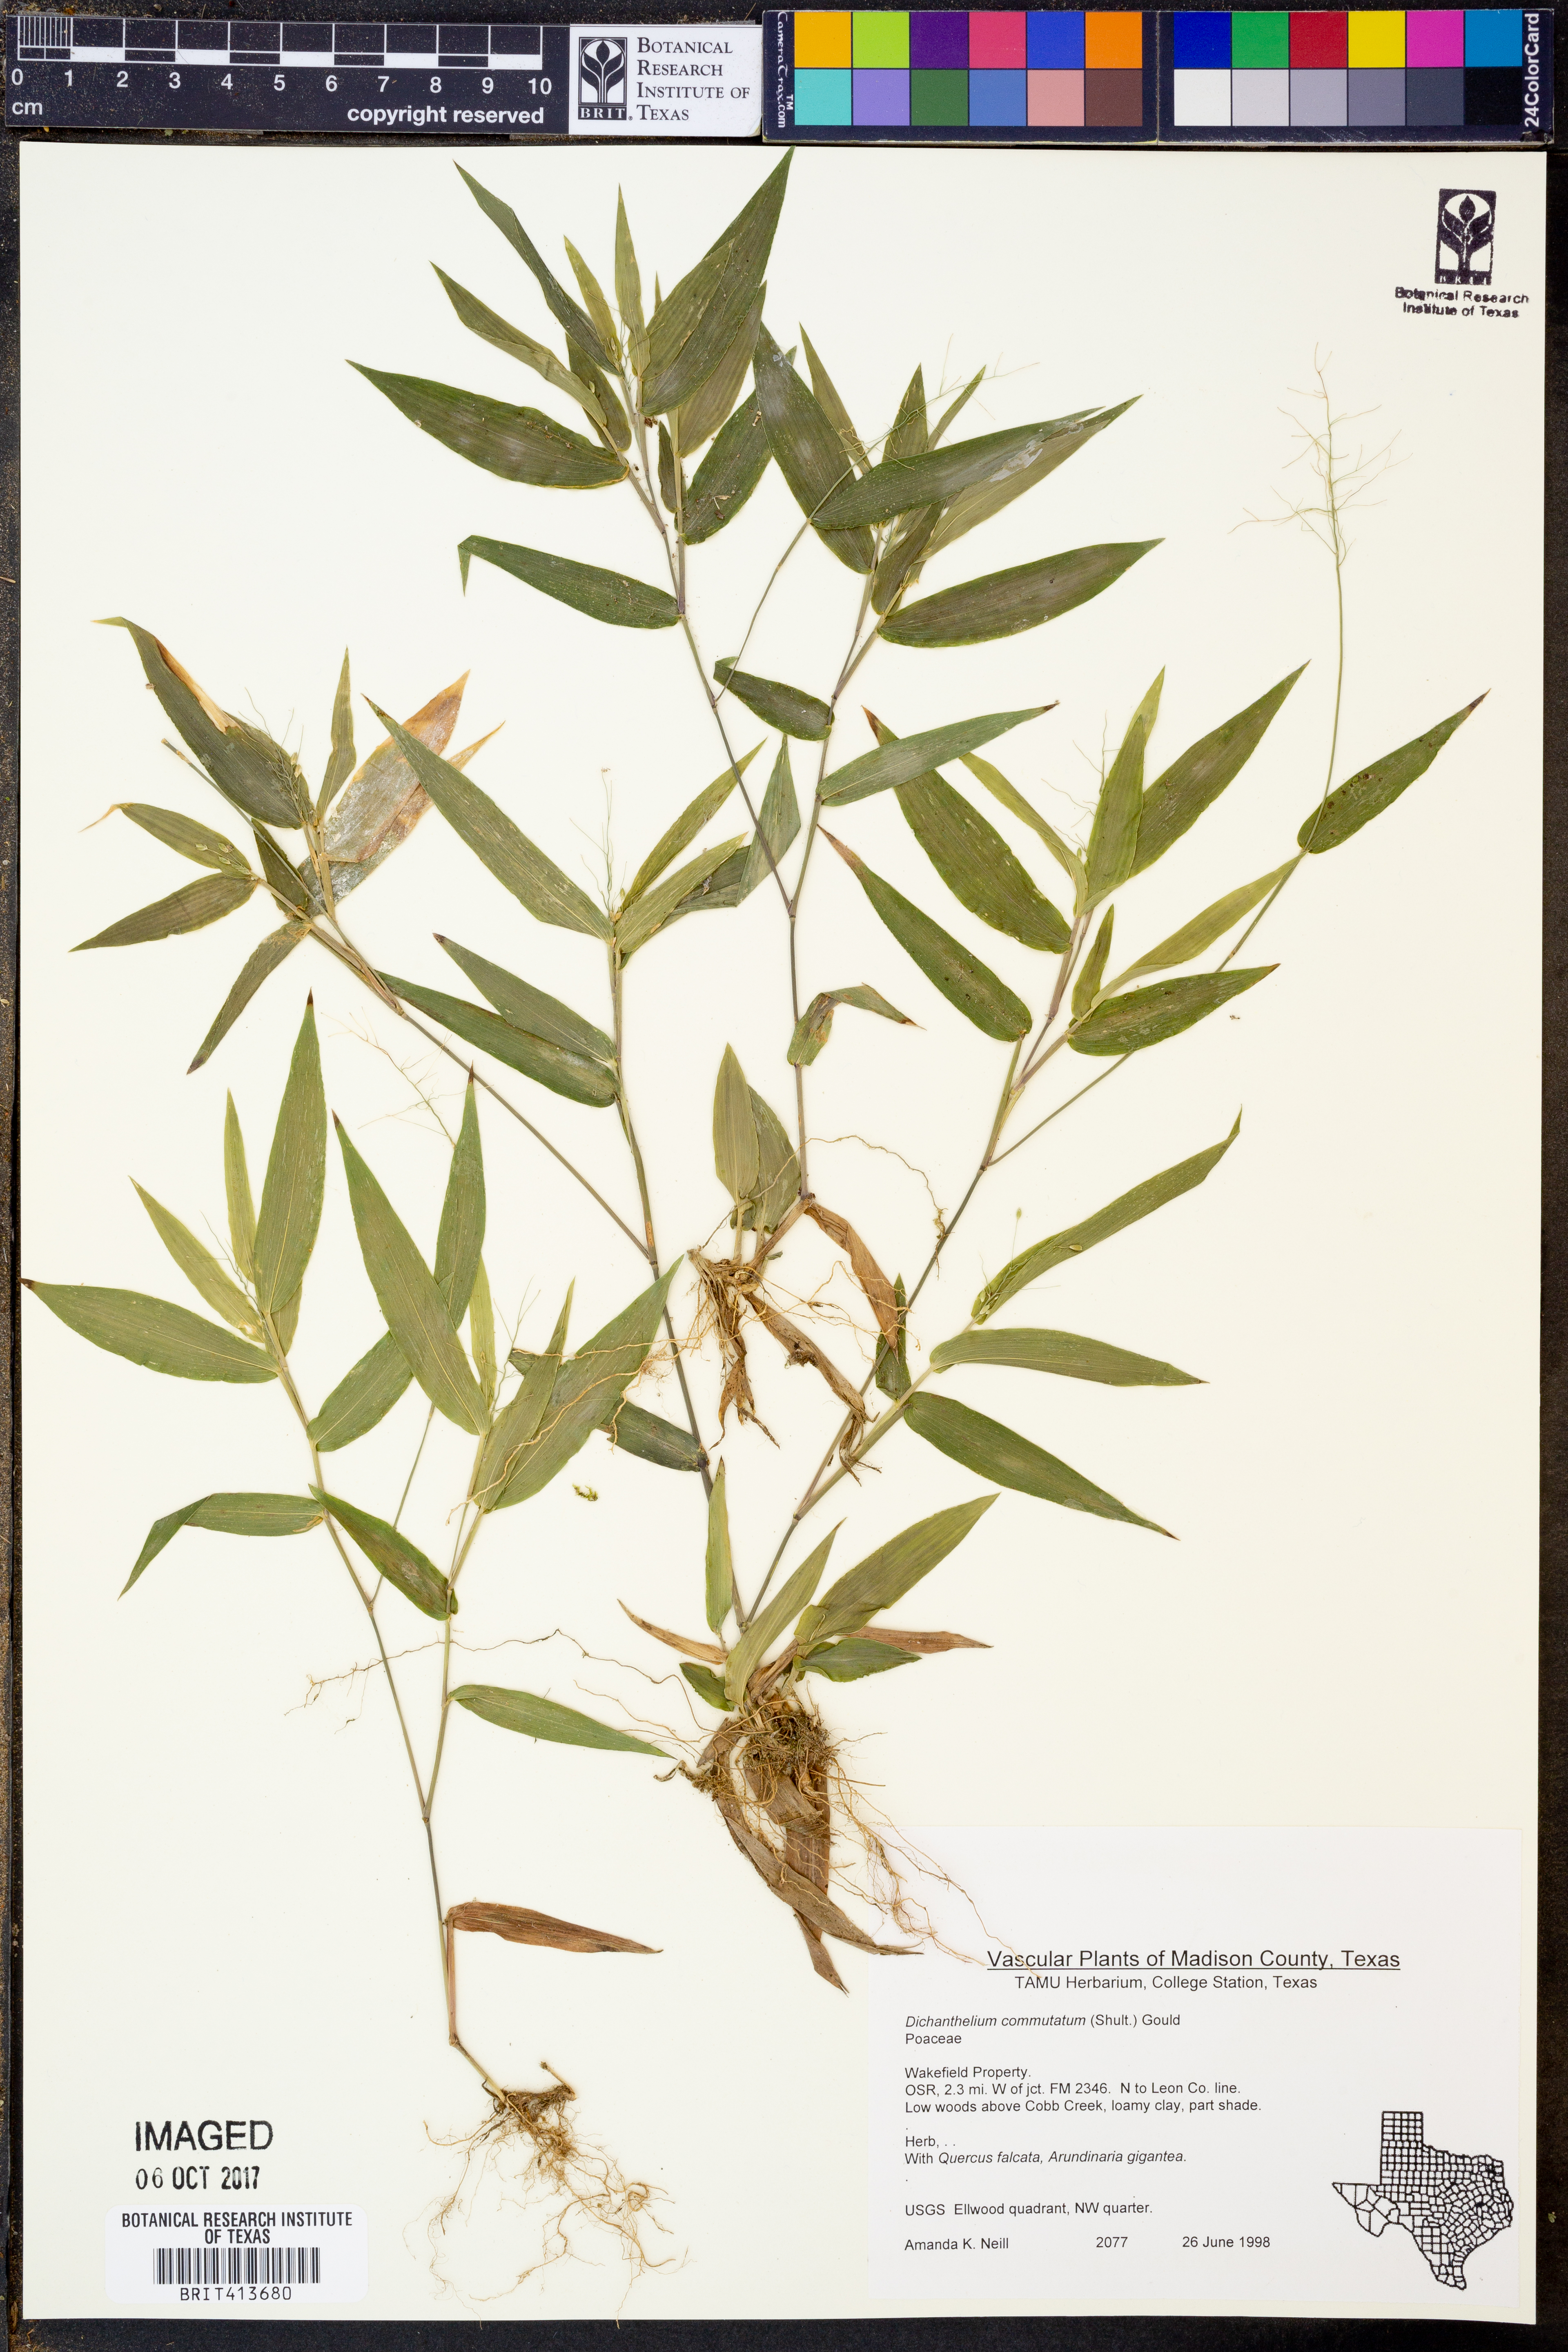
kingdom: Plantae
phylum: Tracheophyta
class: Liliopsida
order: Poales
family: Poaceae
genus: Dichanthelium
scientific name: Dichanthelium commutatum
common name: Variable witchgrass
